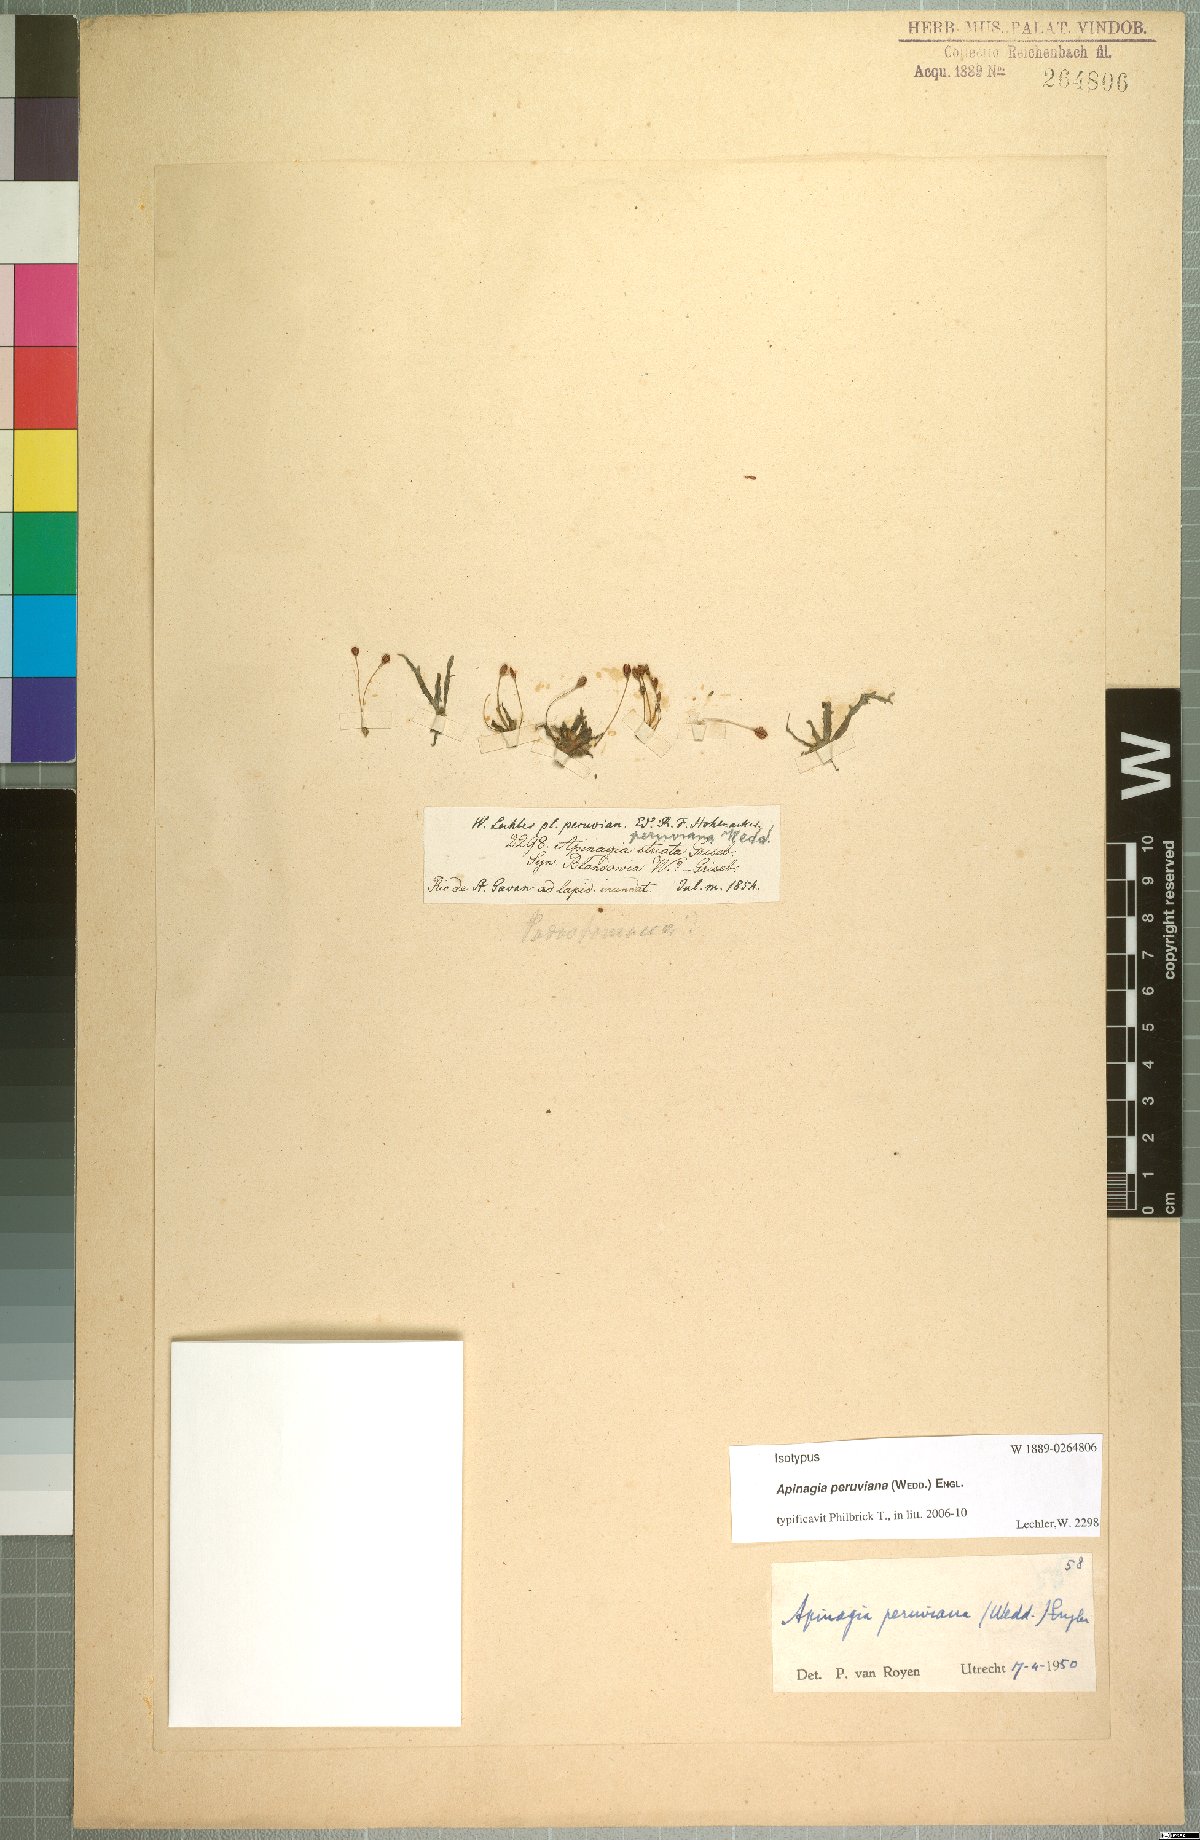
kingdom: Plantae
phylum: Tracheophyta
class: Magnoliopsida
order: Malpighiales
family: Podostemaceae
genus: Marathrum
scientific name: Marathrum tenue
